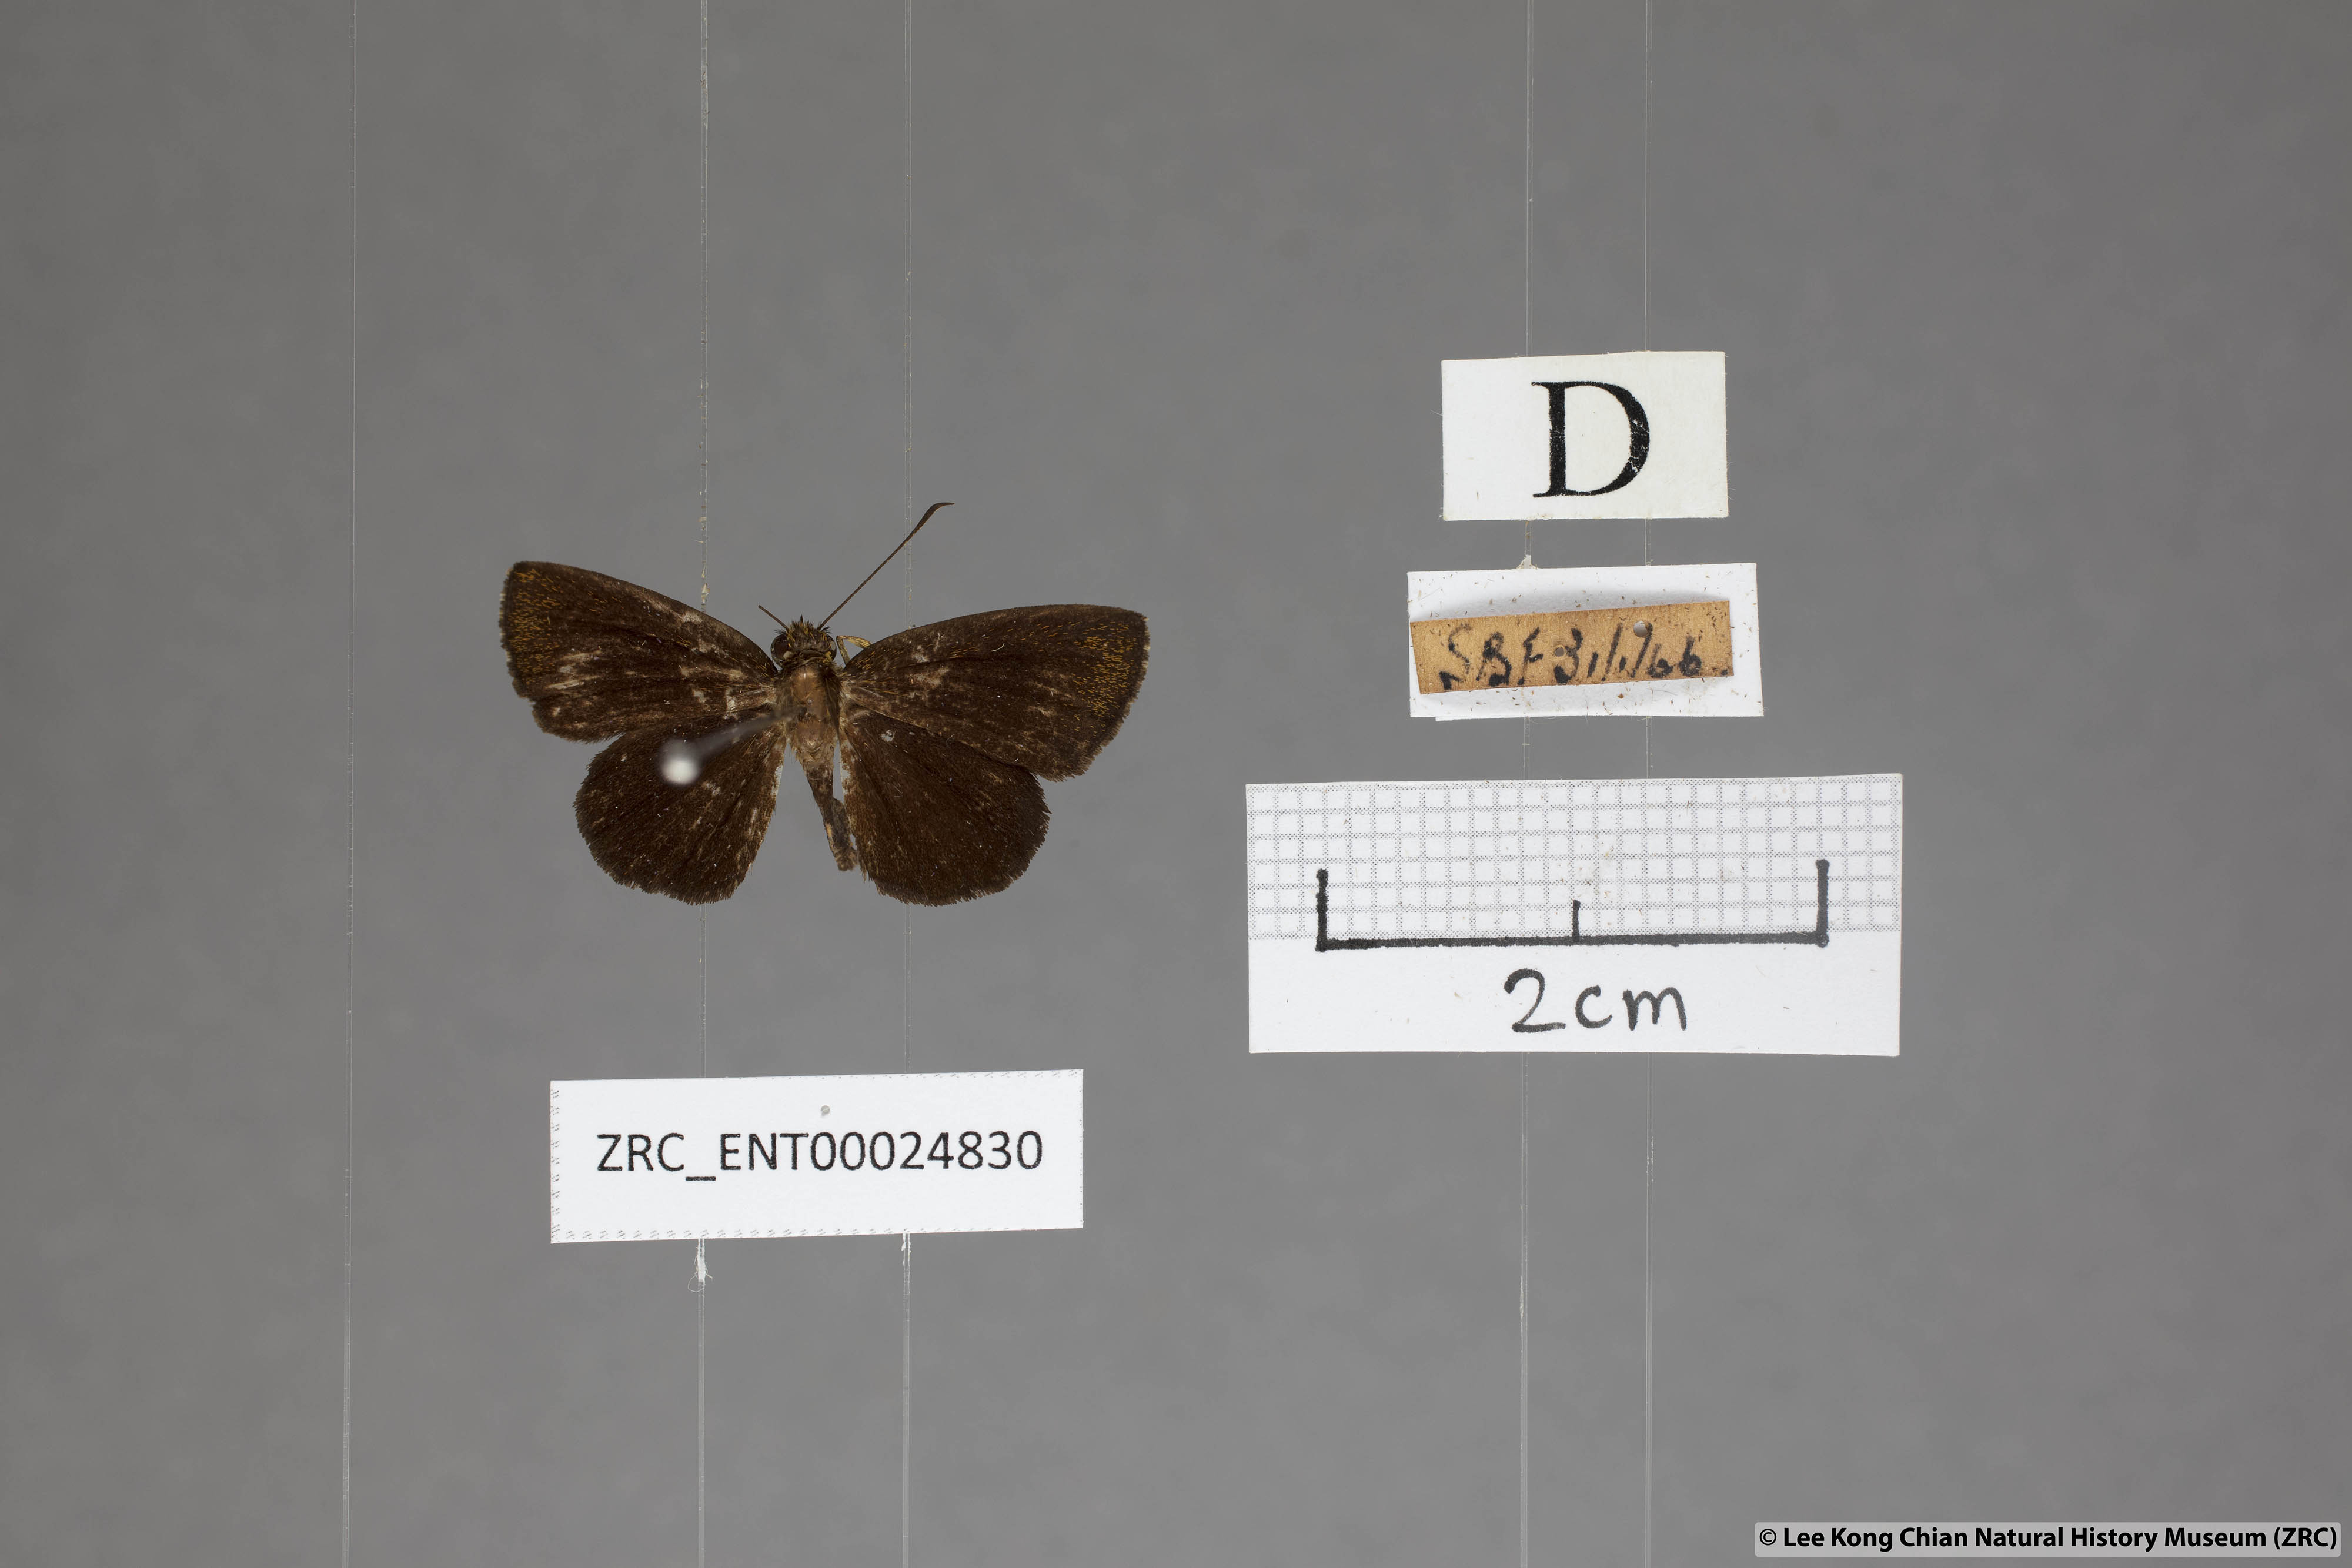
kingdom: Animalia
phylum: Arthropoda
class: Insecta
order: Lepidoptera
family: Hesperiidae
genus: Iambrix
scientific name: Iambrix stellifer
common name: Starry bob
